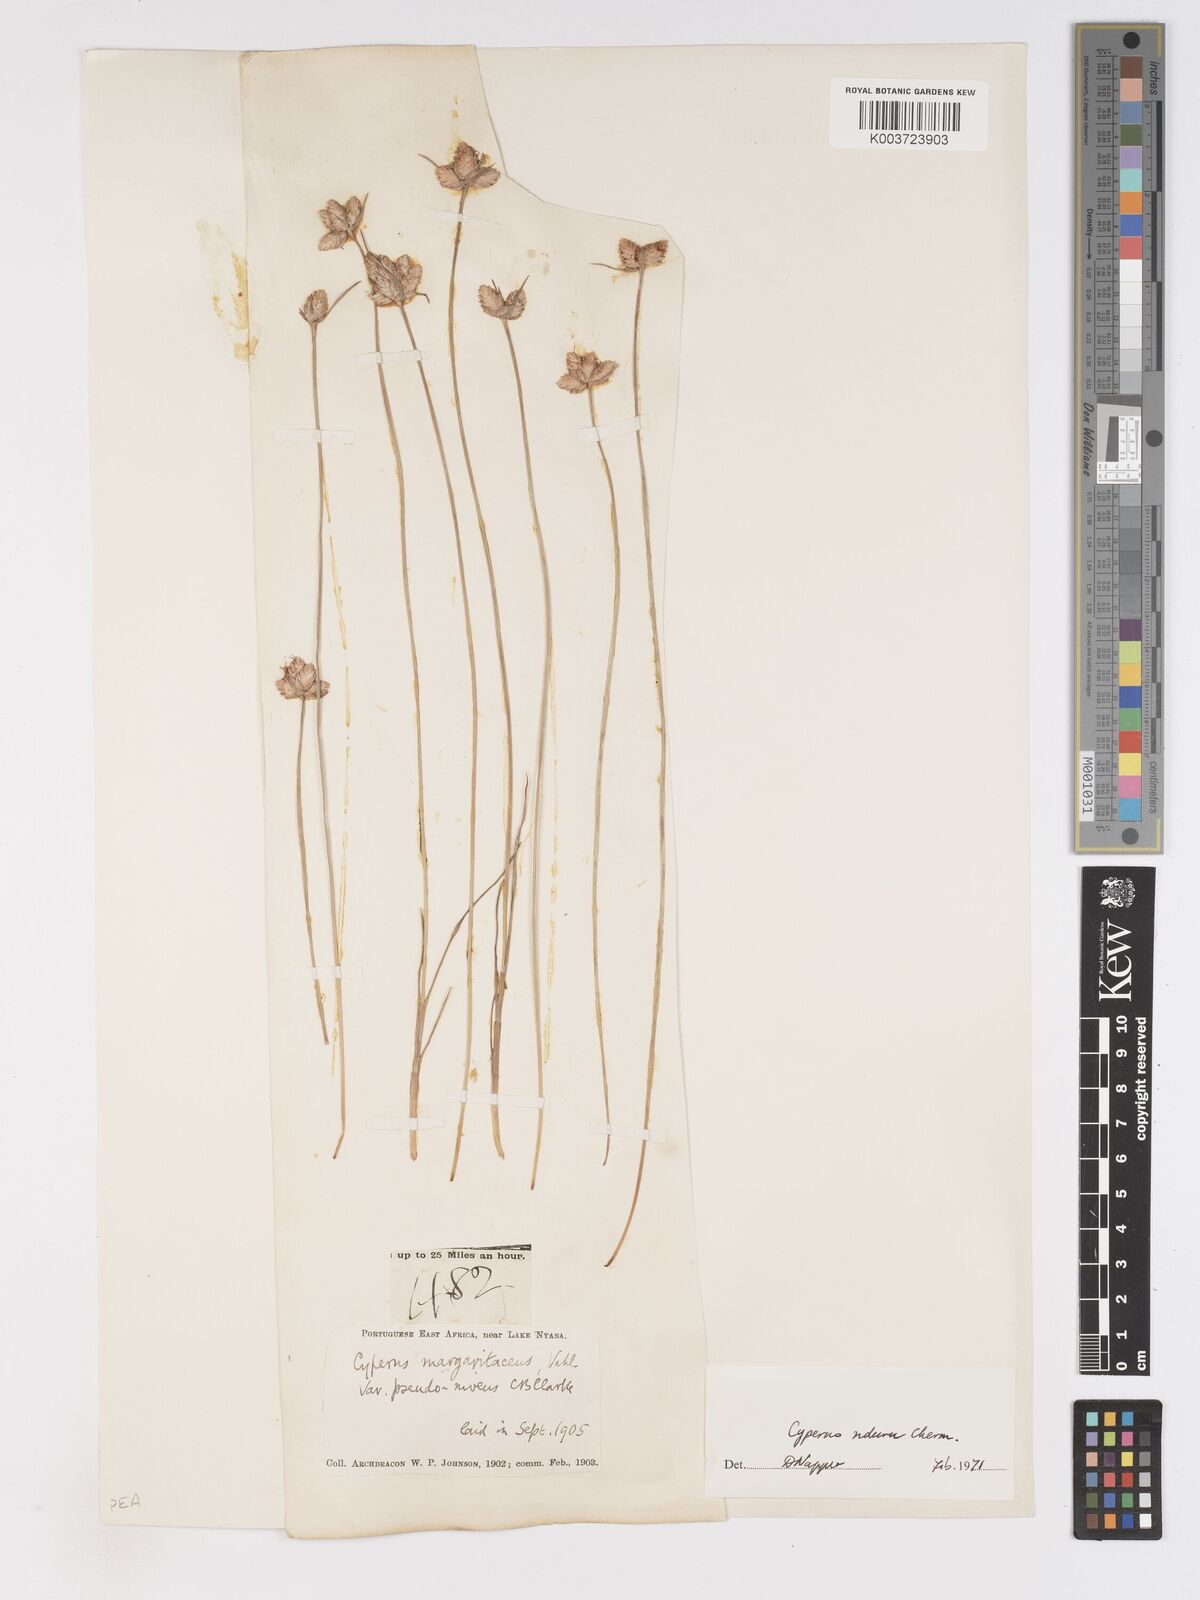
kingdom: Plantae
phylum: Tracheophyta
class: Liliopsida
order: Poales
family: Cyperaceae
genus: Cyperus
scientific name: Cyperus nduru
